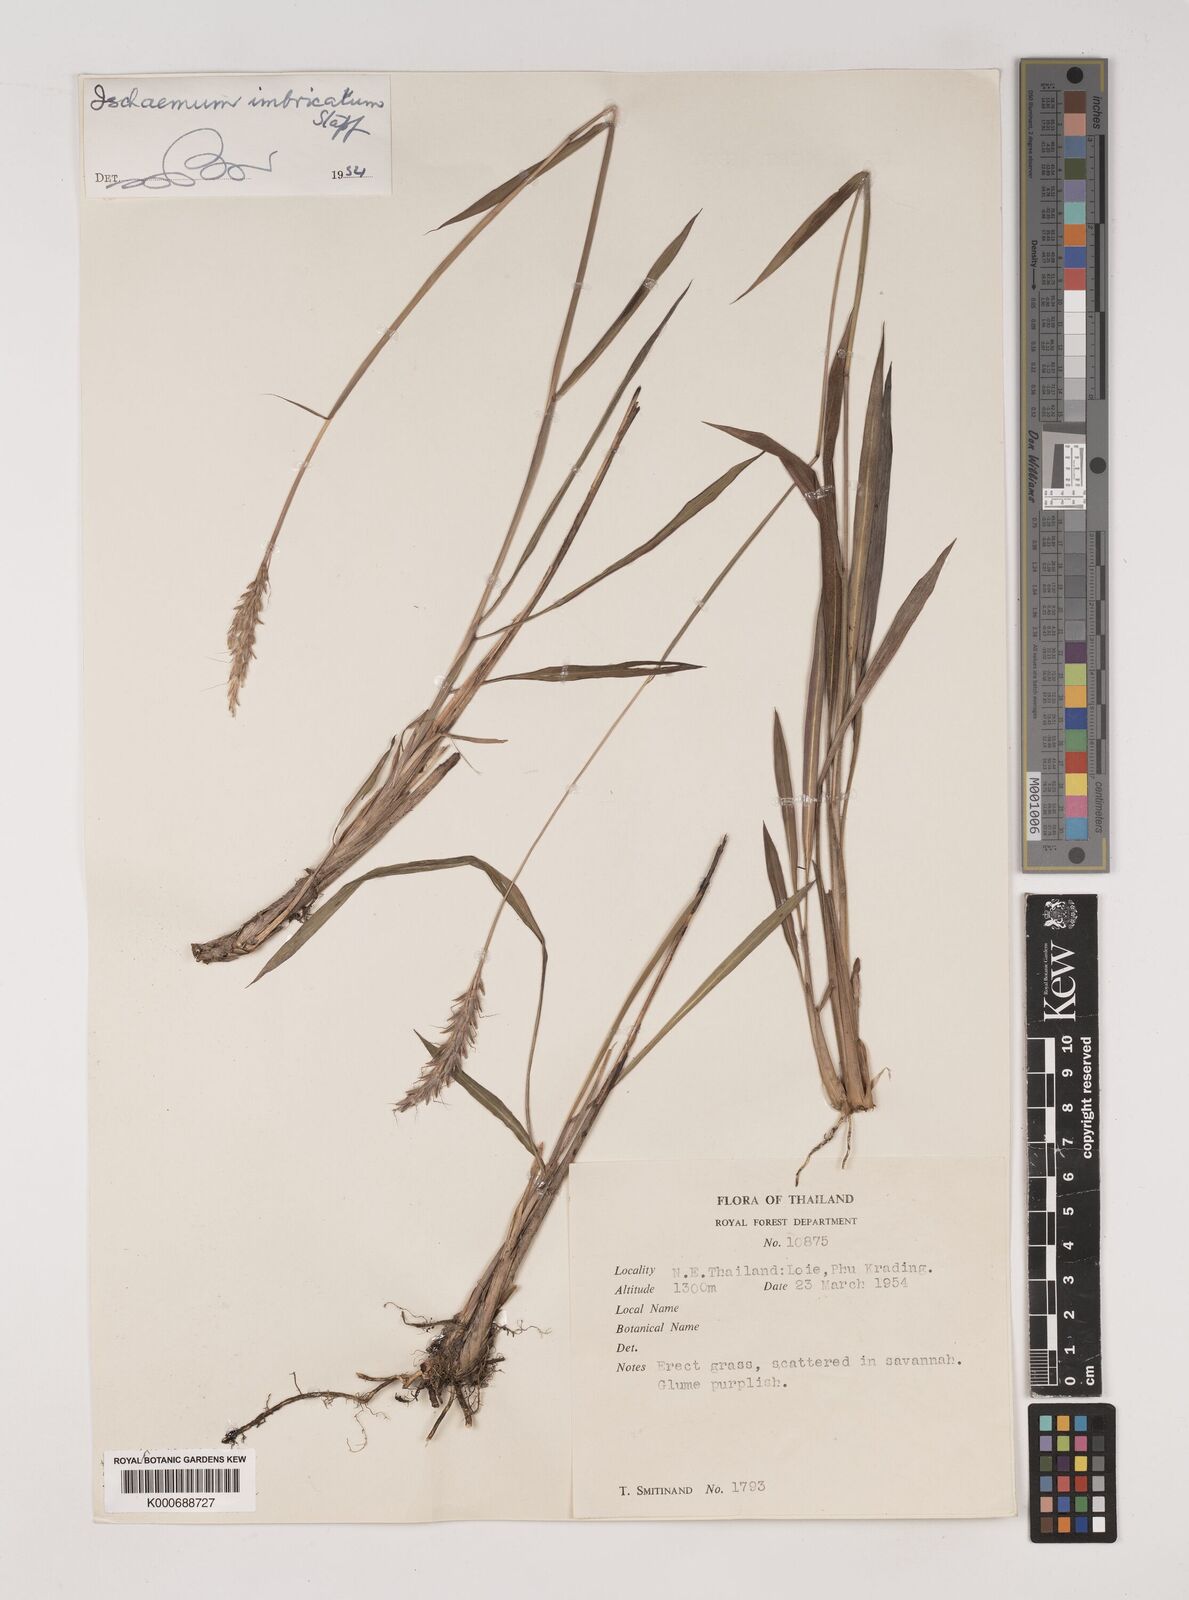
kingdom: Plantae
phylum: Tracheophyta
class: Liliopsida
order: Poales
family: Poaceae
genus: Ischaemum
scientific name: Ischaemum barbatum
